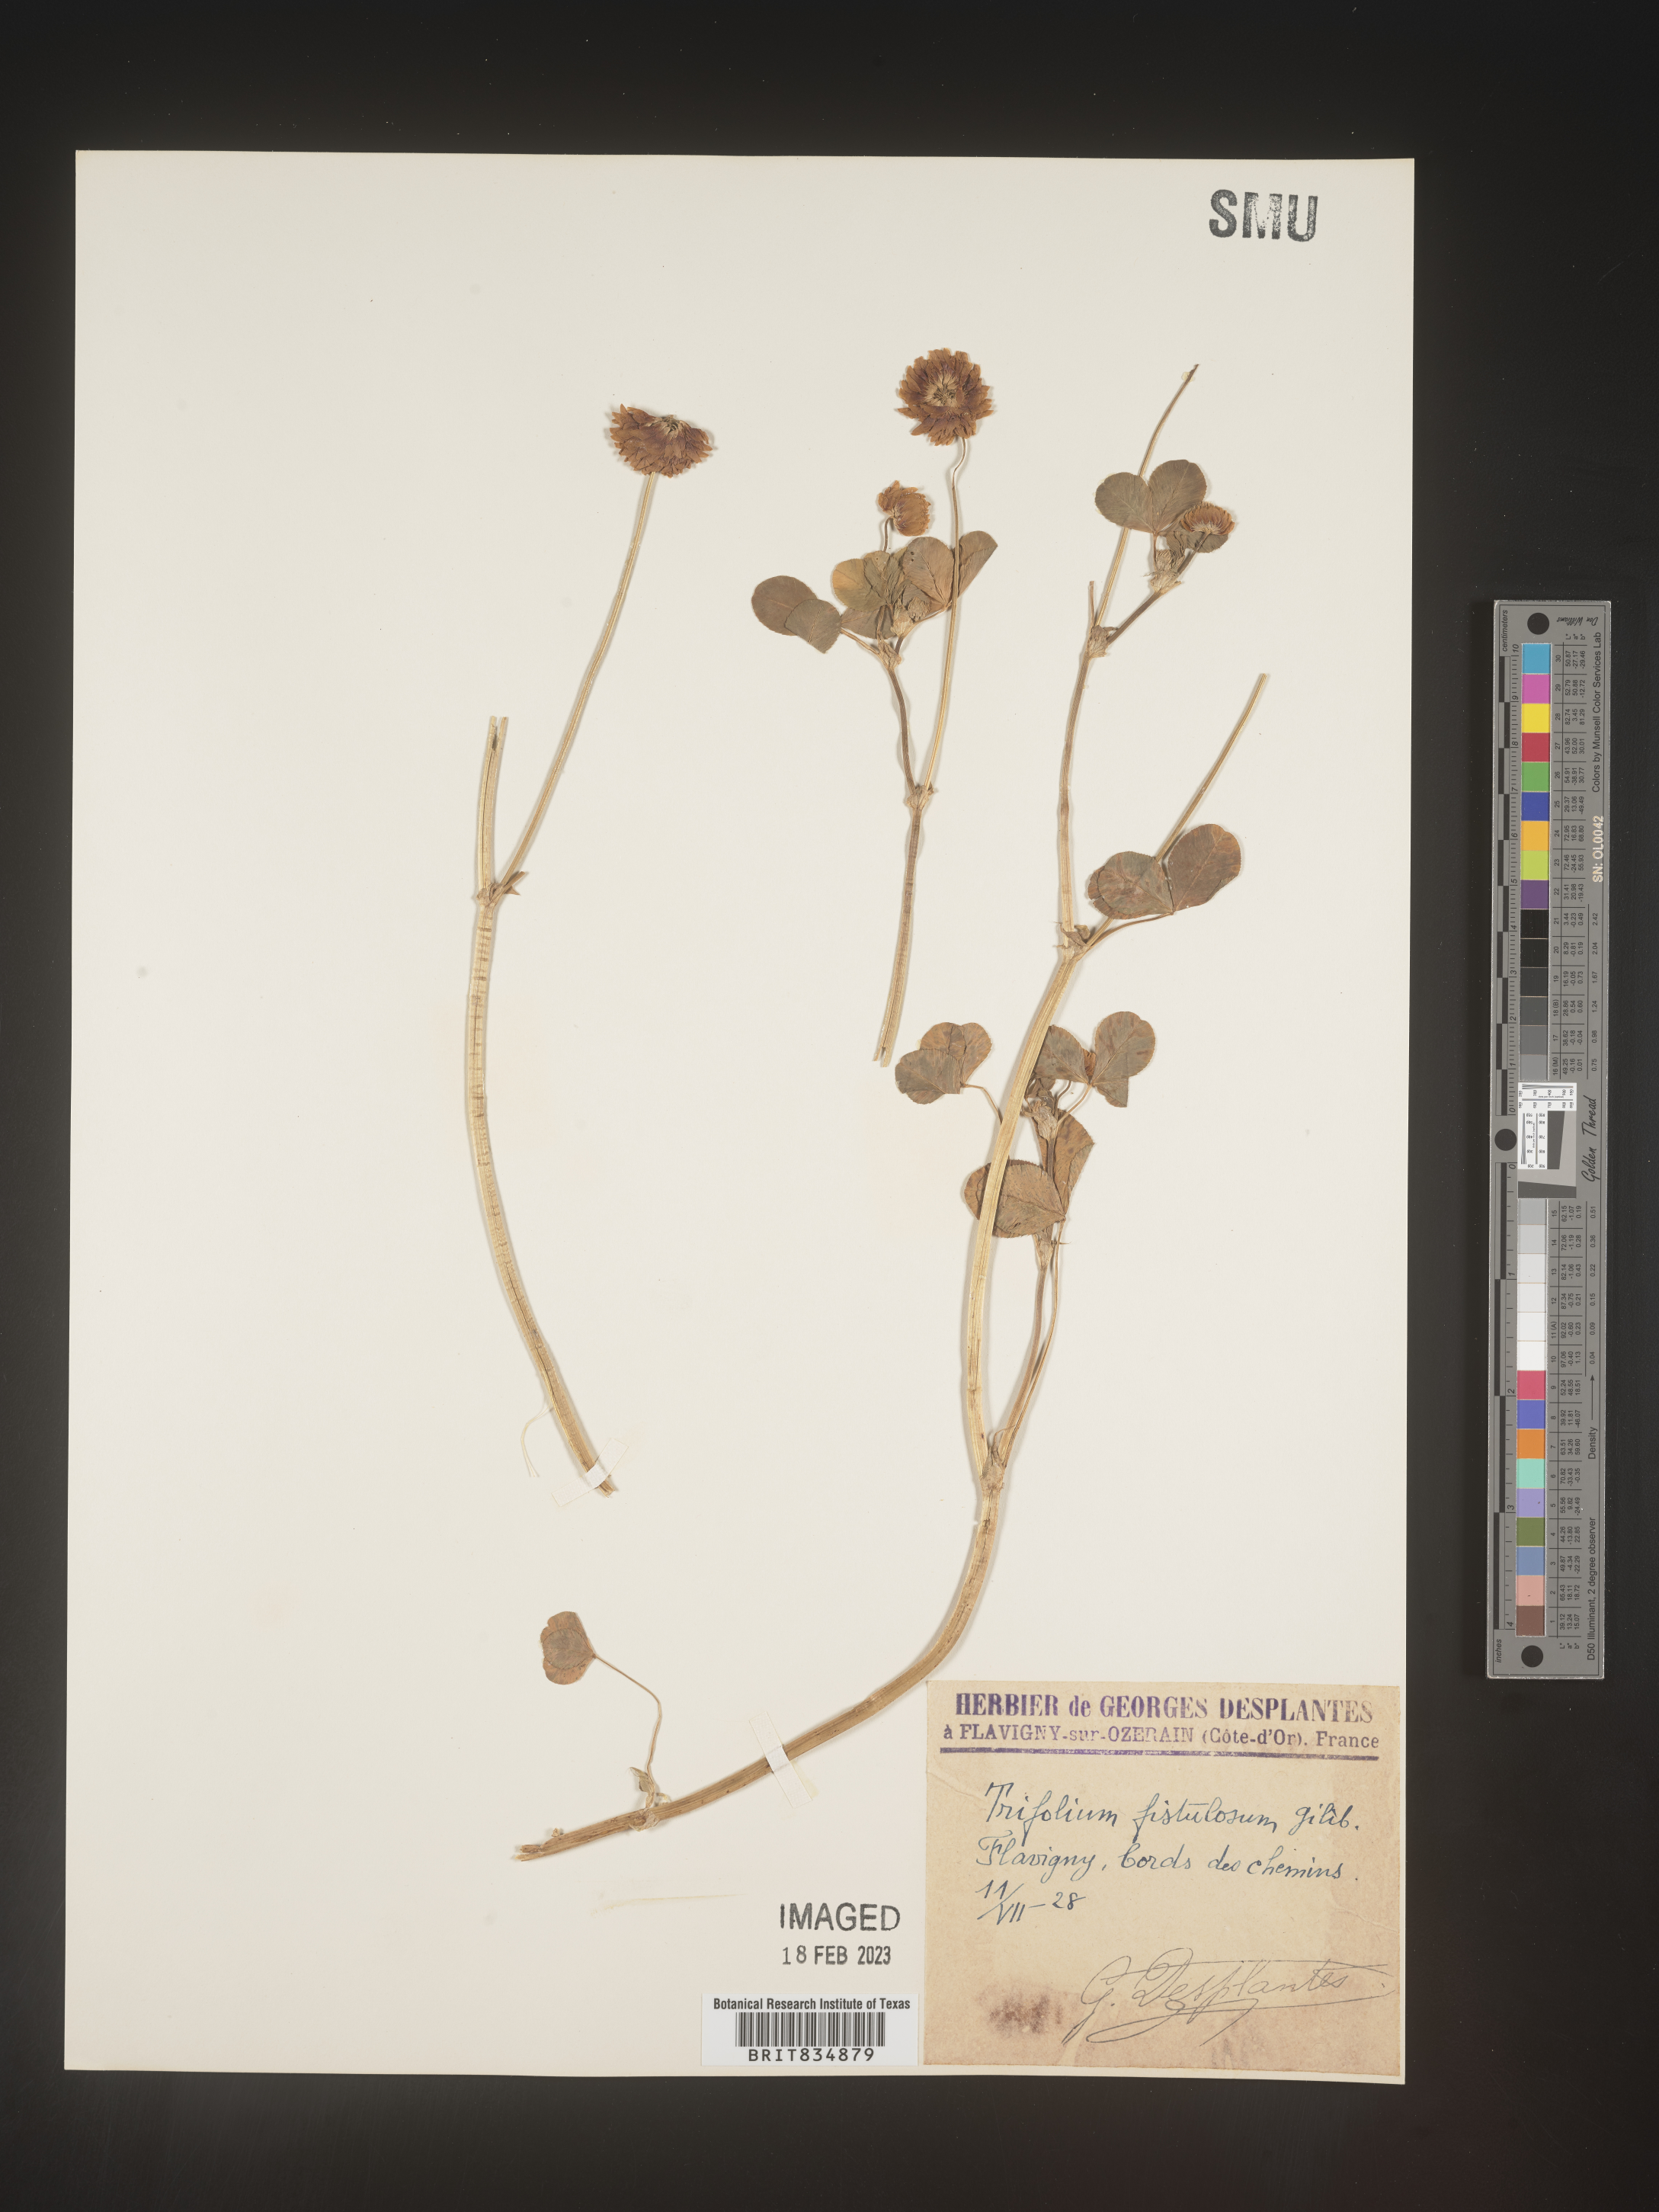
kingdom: Plantae
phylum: Tracheophyta
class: Magnoliopsida
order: Fabales
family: Fabaceae
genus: Trifolium
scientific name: Trifolium
